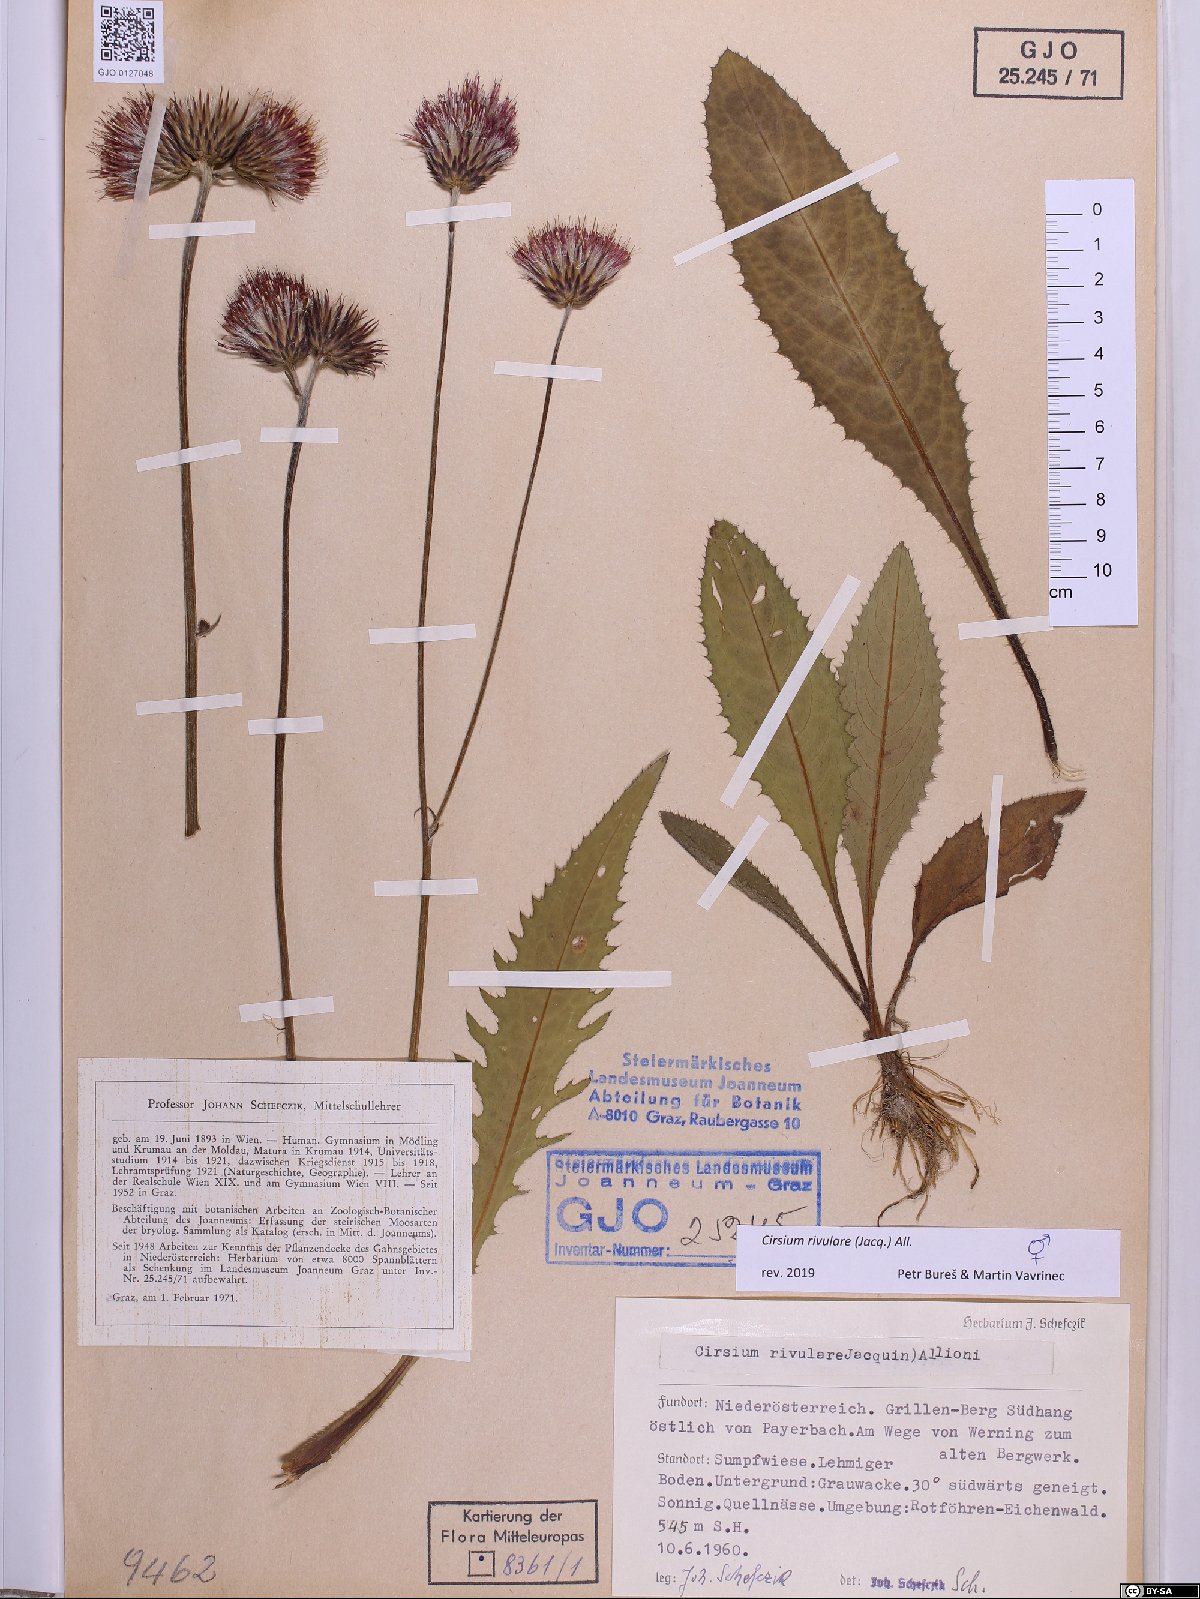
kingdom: Plantae
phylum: Tracheophyta
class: Magnoliopsida
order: Asterales
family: Asteraceae
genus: Cirsium
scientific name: Cirsium rivulare
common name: Brook thistle
